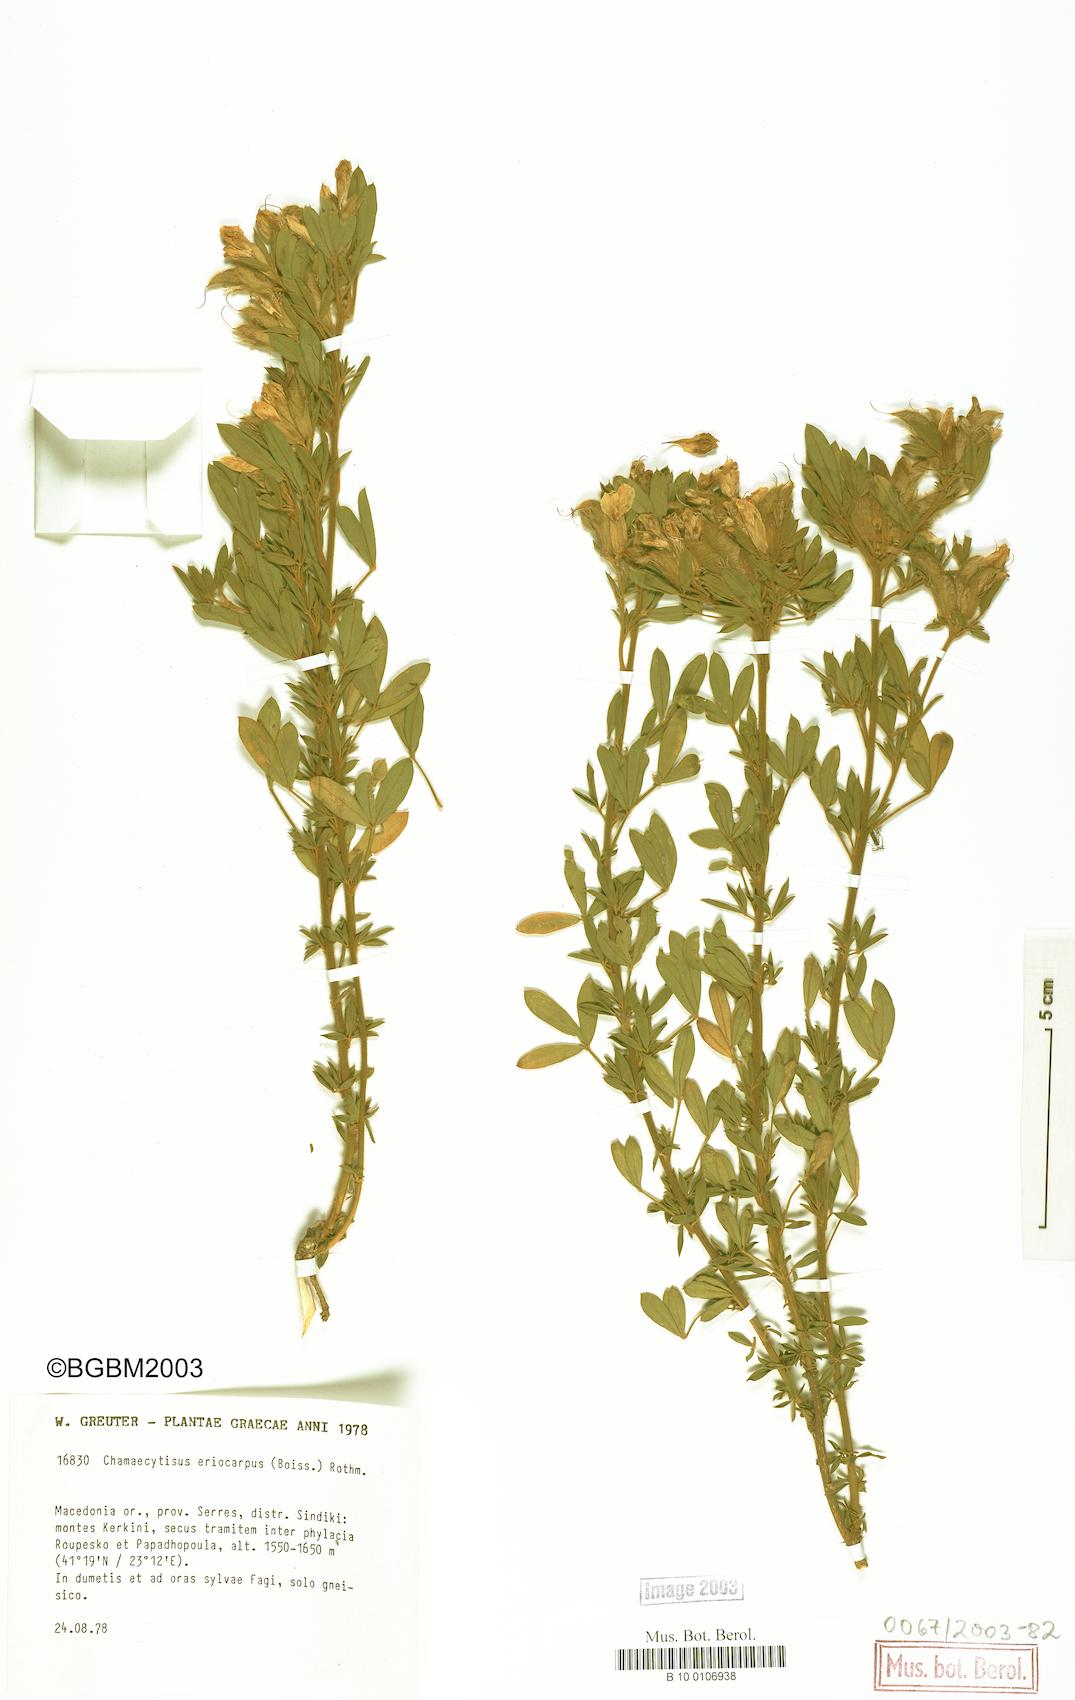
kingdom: Plantae
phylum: Tracheophyta
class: Magnoliopsida
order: Fabales
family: Fabaceae
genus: Chamaecytisus
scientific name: Chamaecytisus eriocarpus
